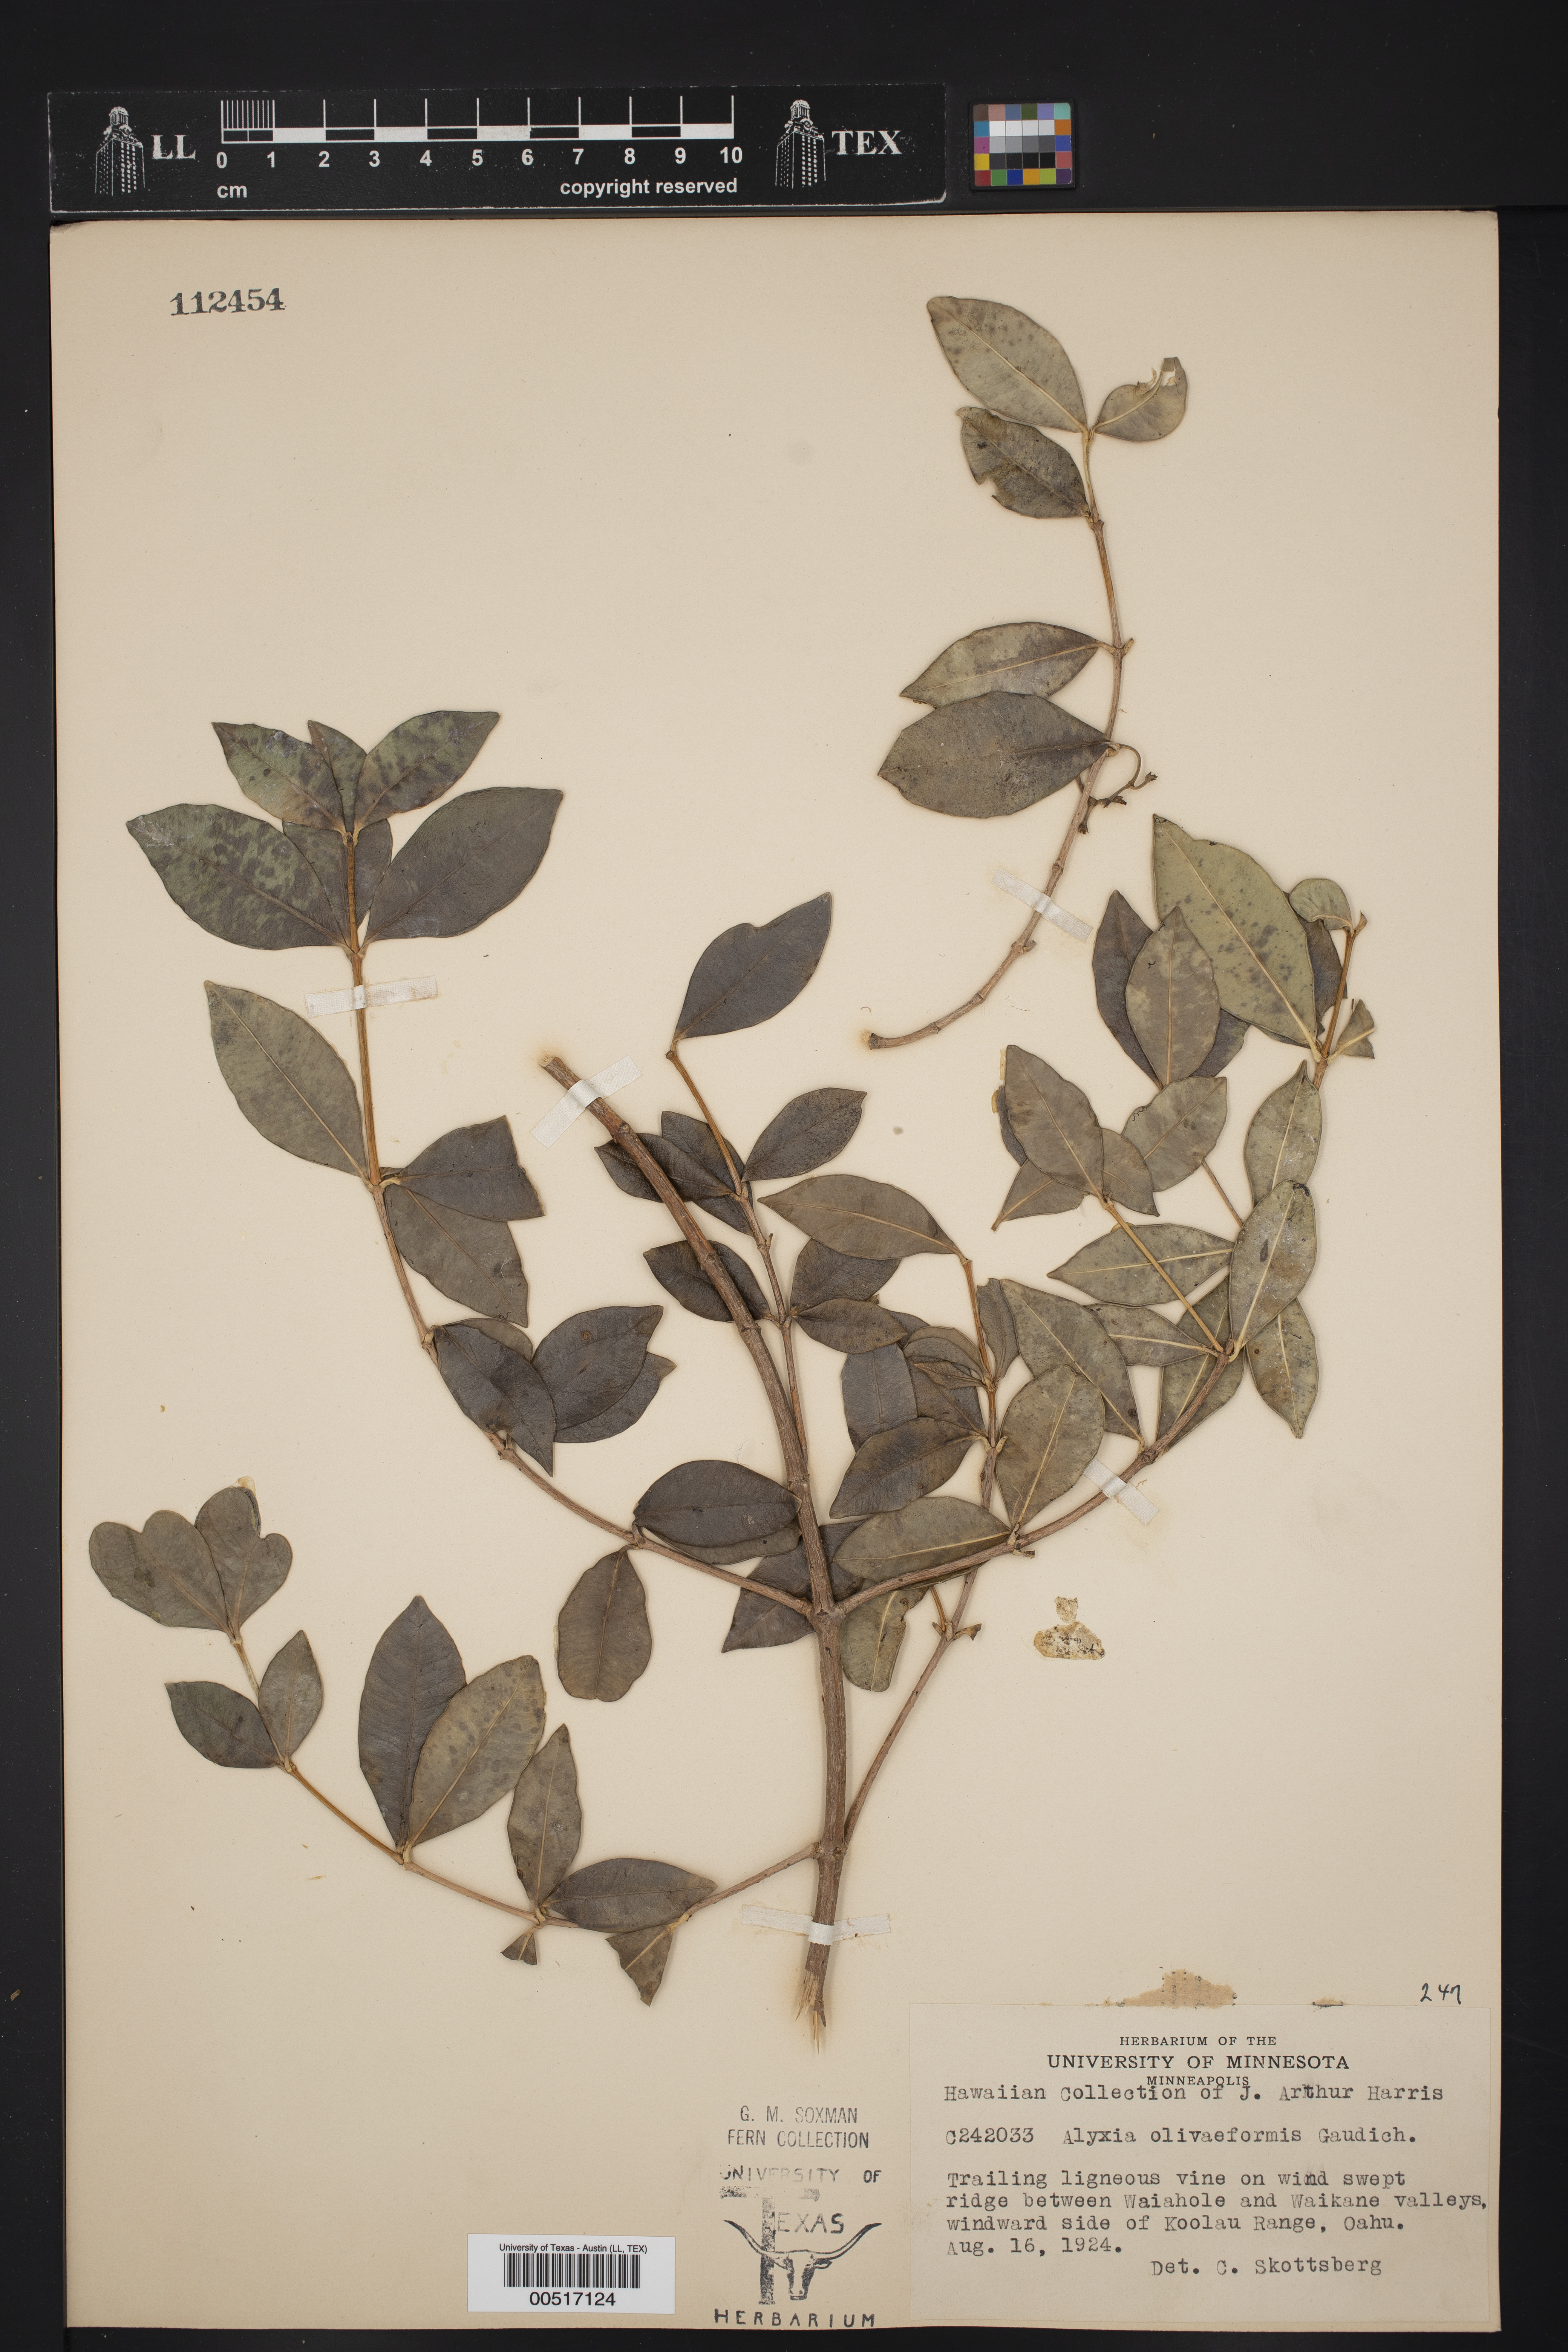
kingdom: Plantae
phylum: Tracheophyta
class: Magnoliopsida
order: Gentianales
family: Apocynaceae
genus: Alyxia
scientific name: Alyxia stellata
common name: Maile
